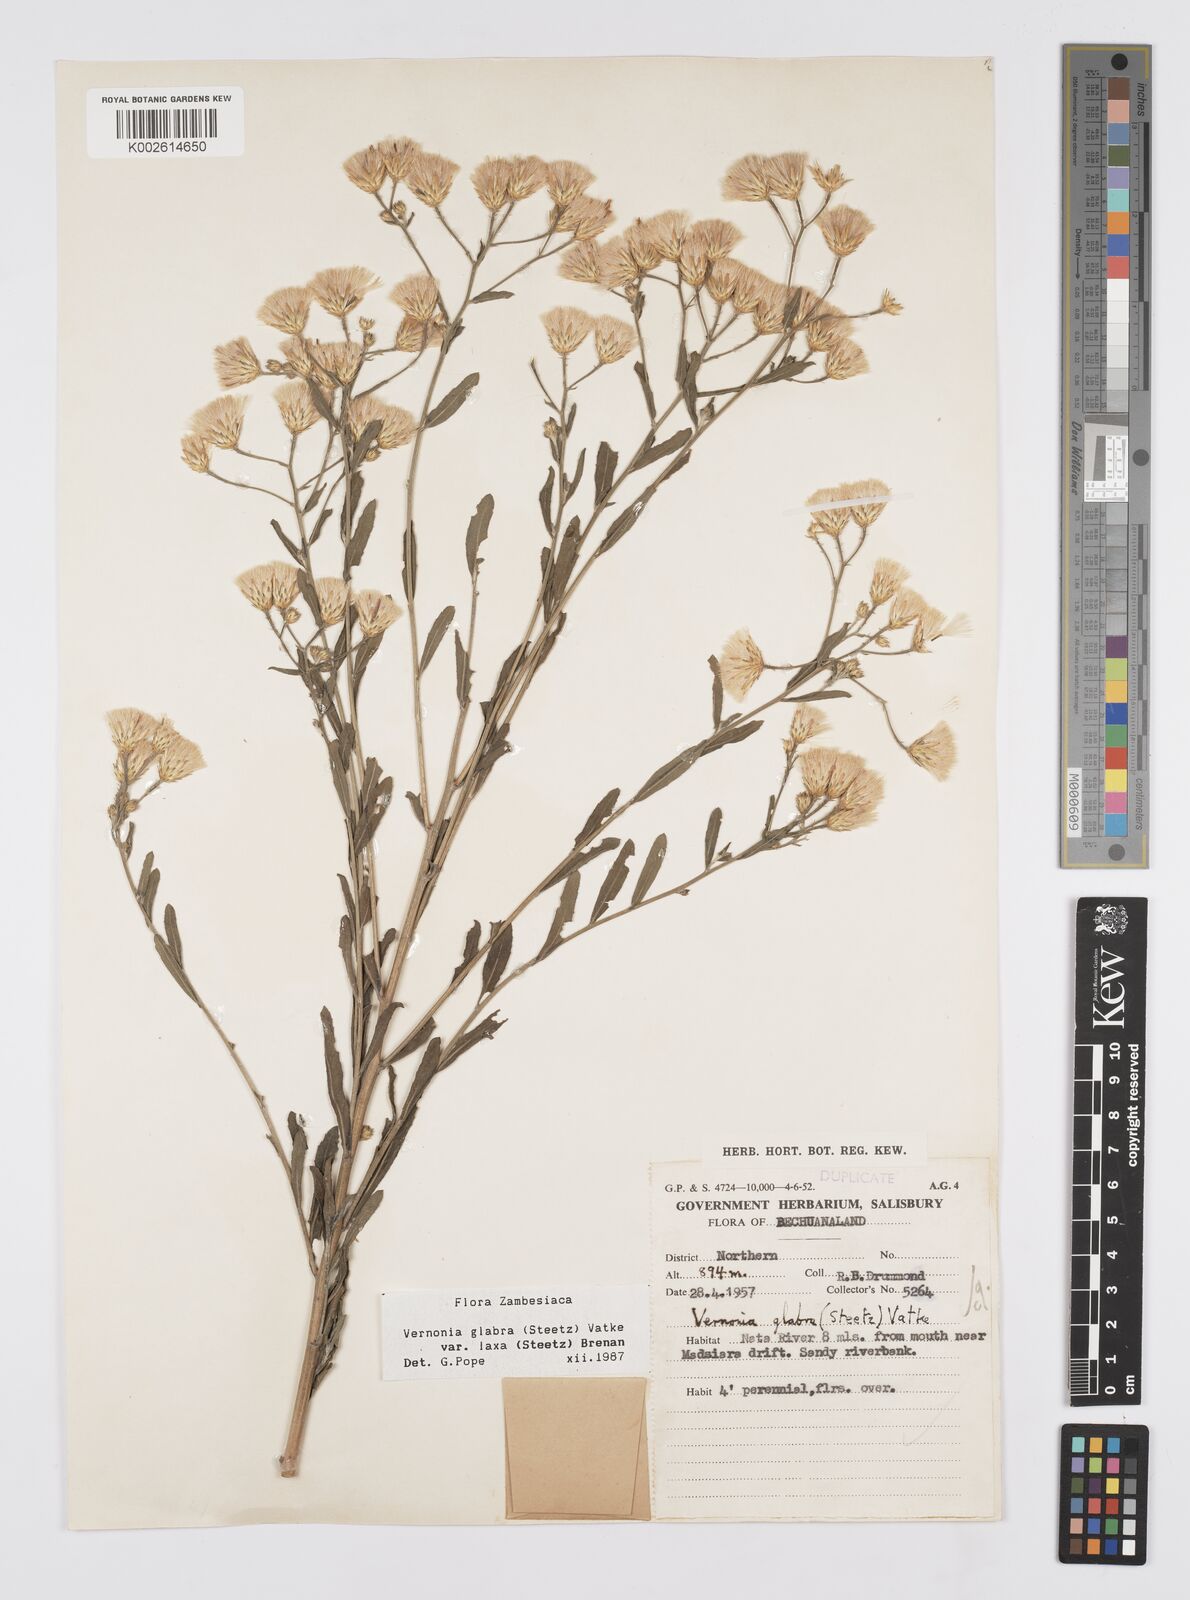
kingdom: Plantae
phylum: Tracheophyta
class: Magnoliopsida
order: Asterales
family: Asteraceae
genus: Linzia
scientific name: Linzia glabra
